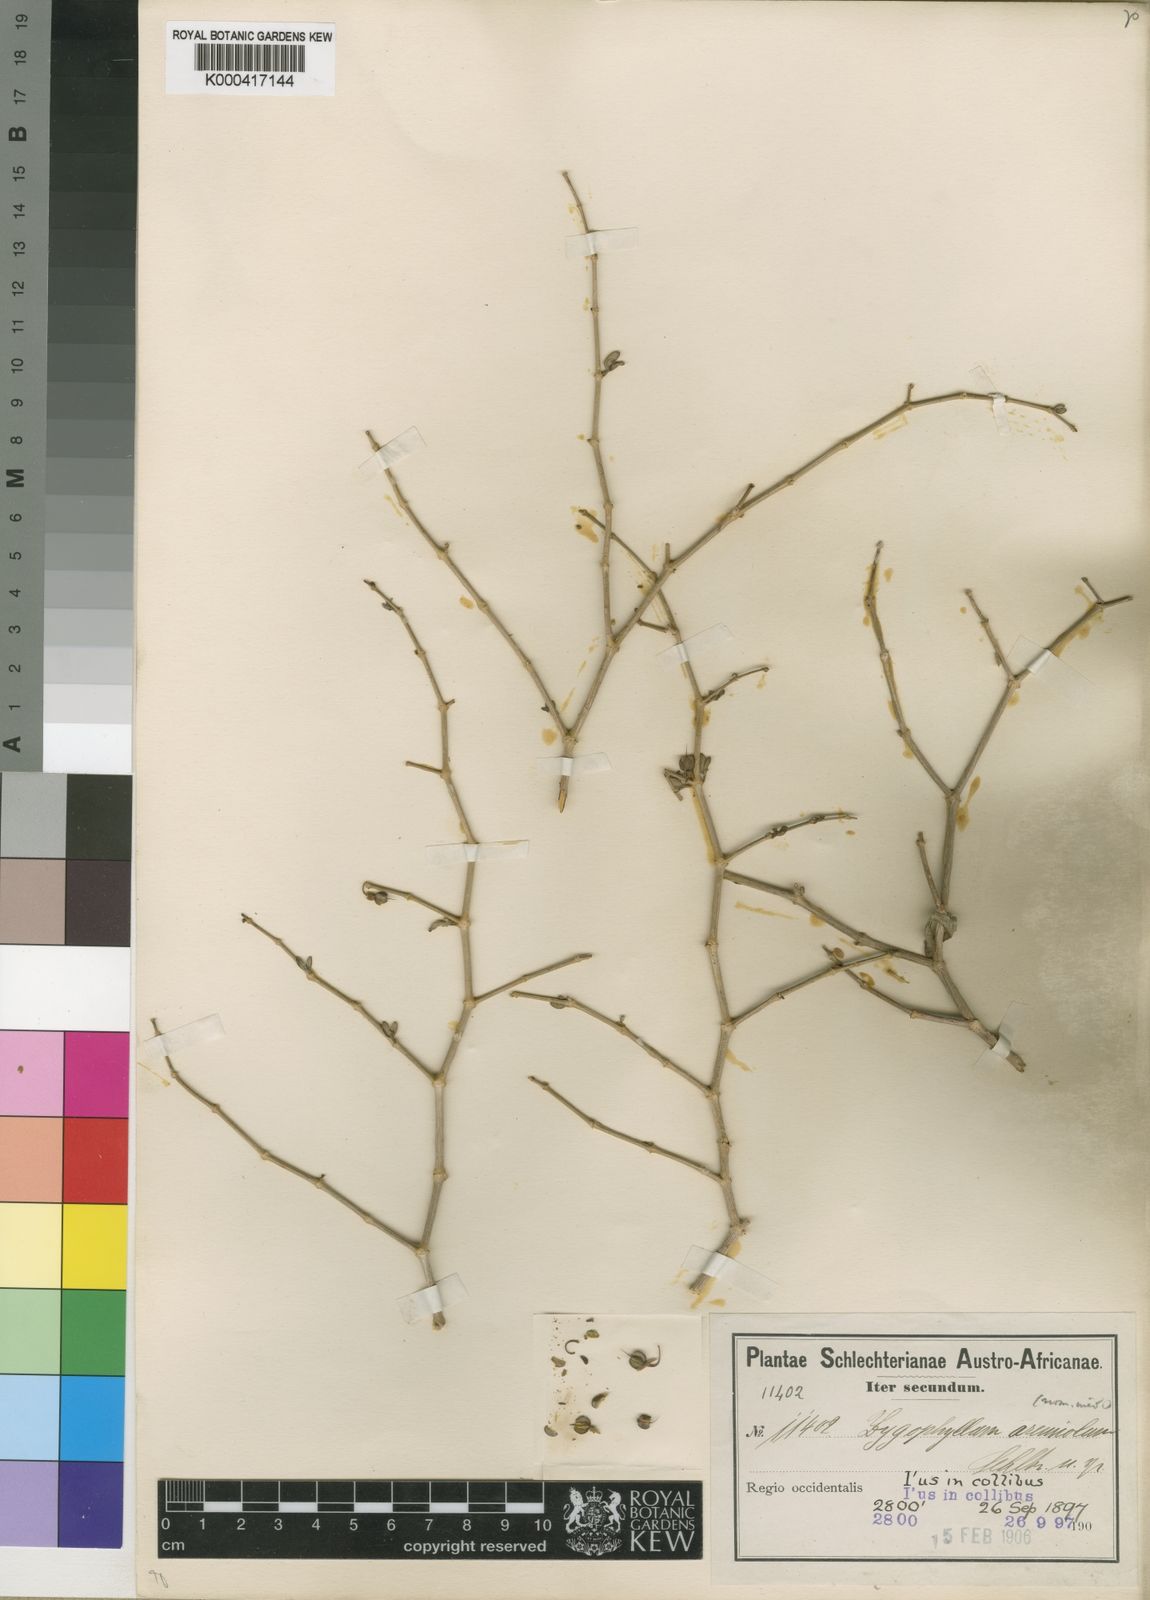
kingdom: Plantae
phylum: Tracheophyta
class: Magnoliopsida
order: Zygophyllales
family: Zygophyllaceae
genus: Zygophyllum
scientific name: Zygophyllum
